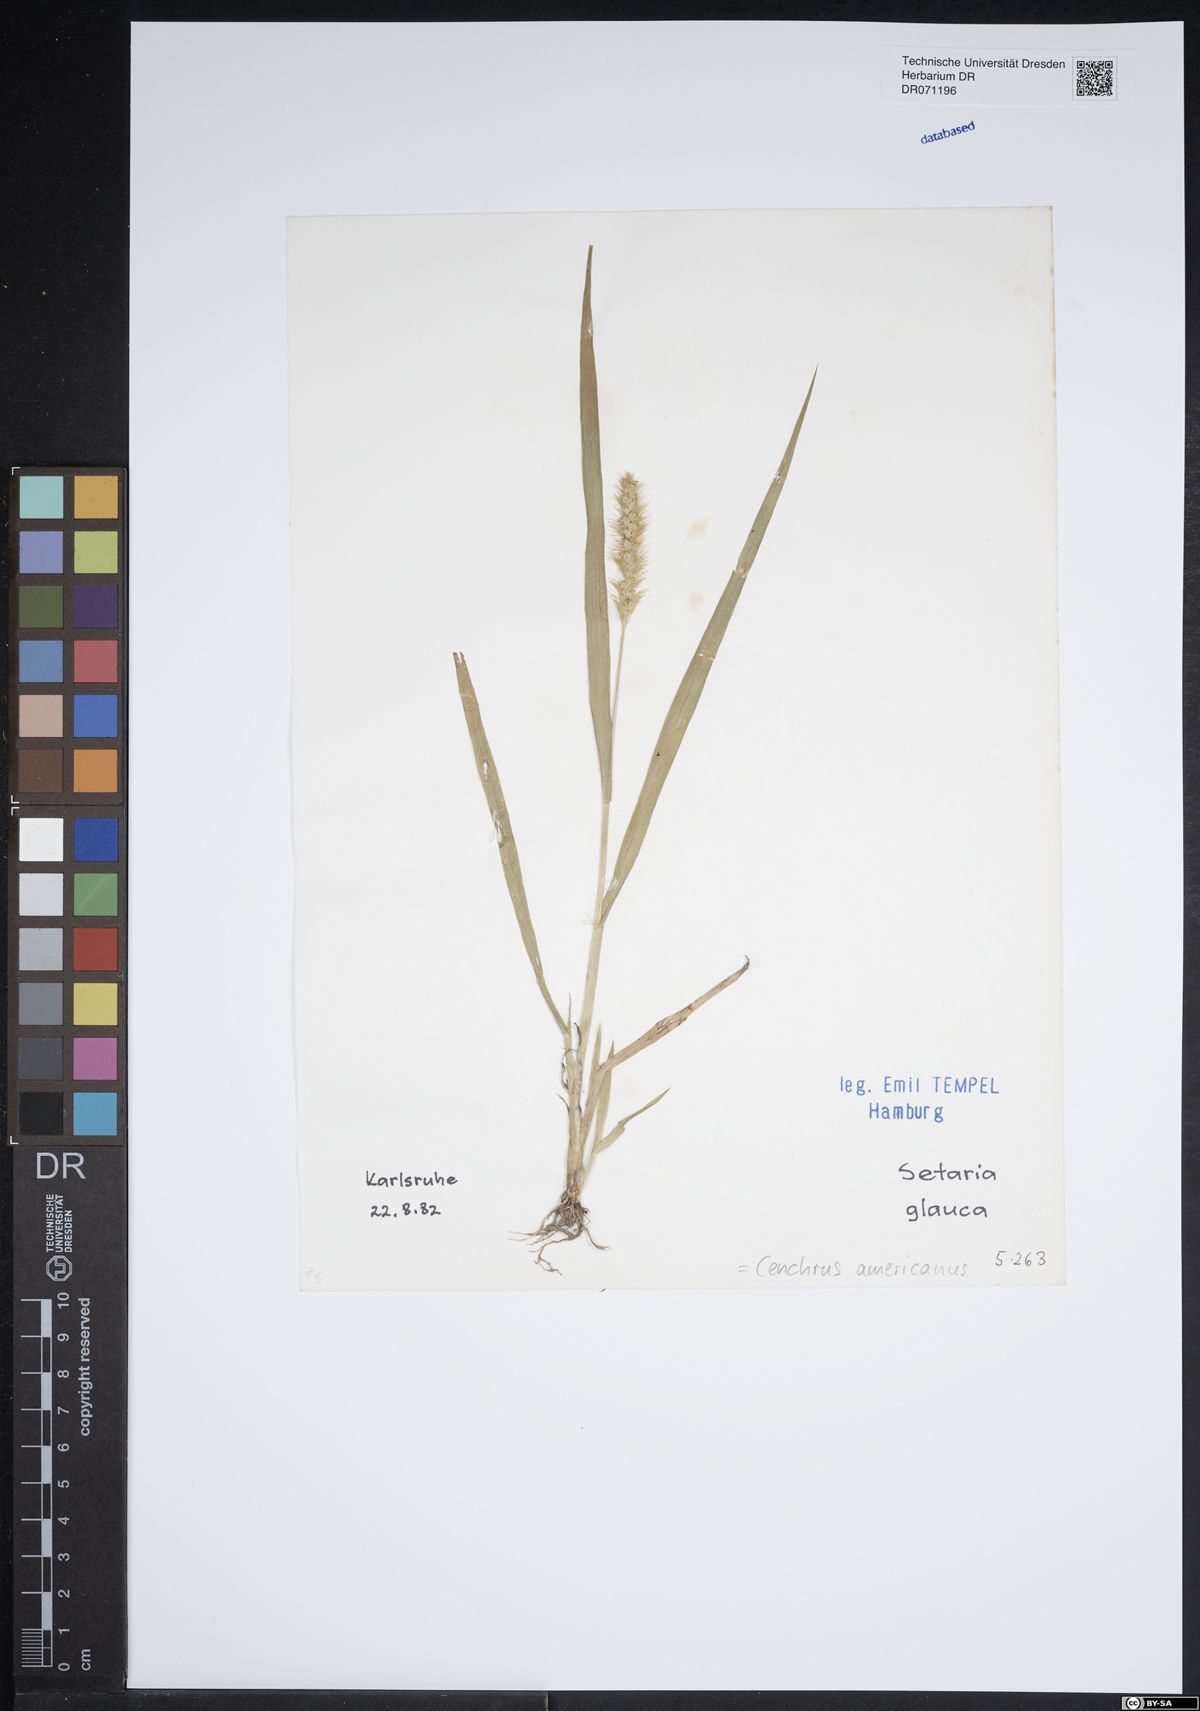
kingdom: Plantae
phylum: Tracheophyta
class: Liliopsida
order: Poales
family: Poaceae
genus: Cenchrus
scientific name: Cenchrus americanus
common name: Pearl millet
